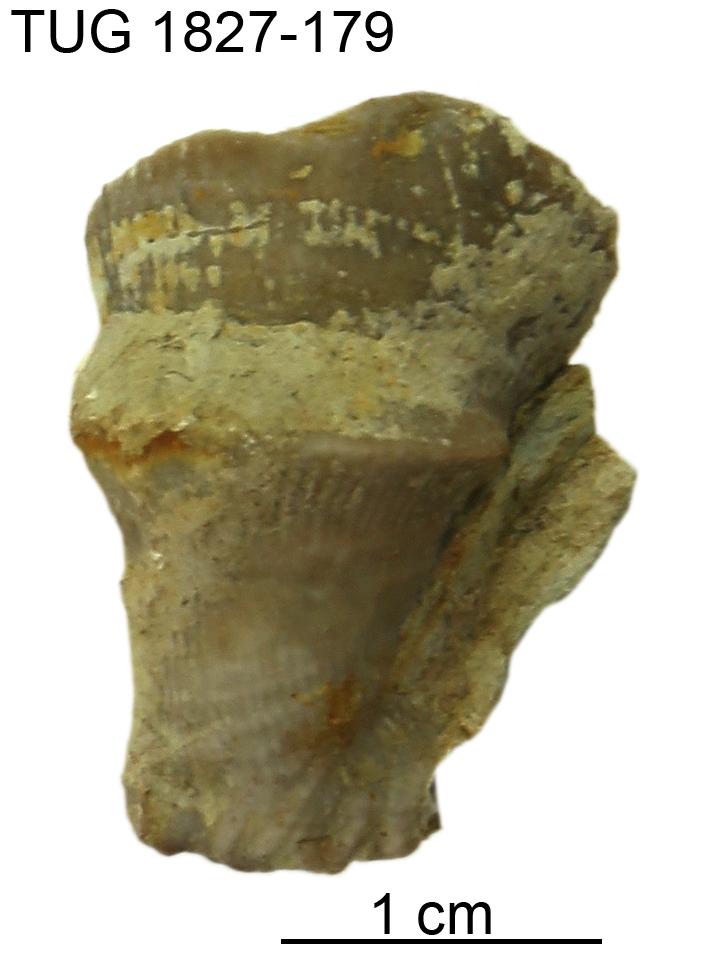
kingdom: Animalia
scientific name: Animalia
